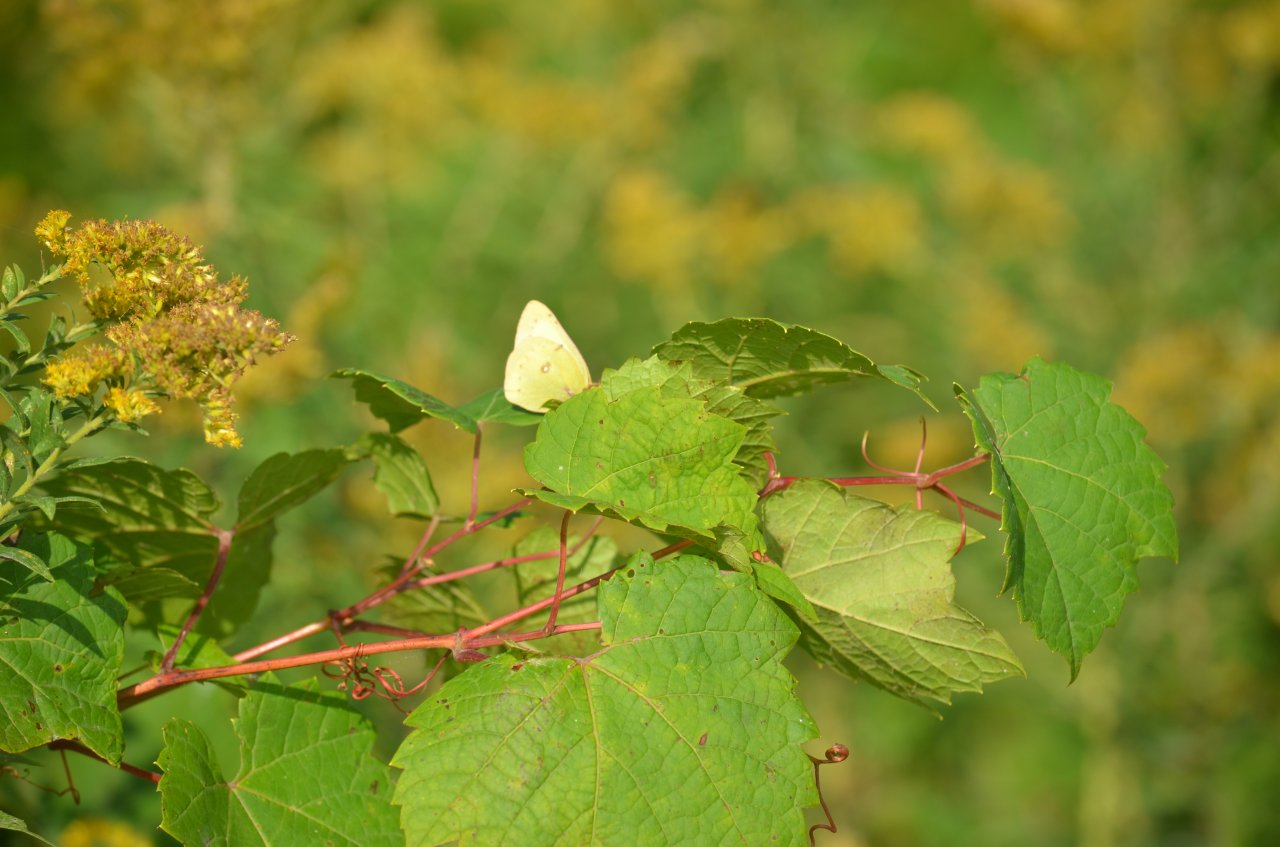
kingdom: Animalia
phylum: Arthropoda
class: Insecta
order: Lepidoptera
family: Pieridae
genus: Colias
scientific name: Colias philodice
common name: Clouded Sulphur
